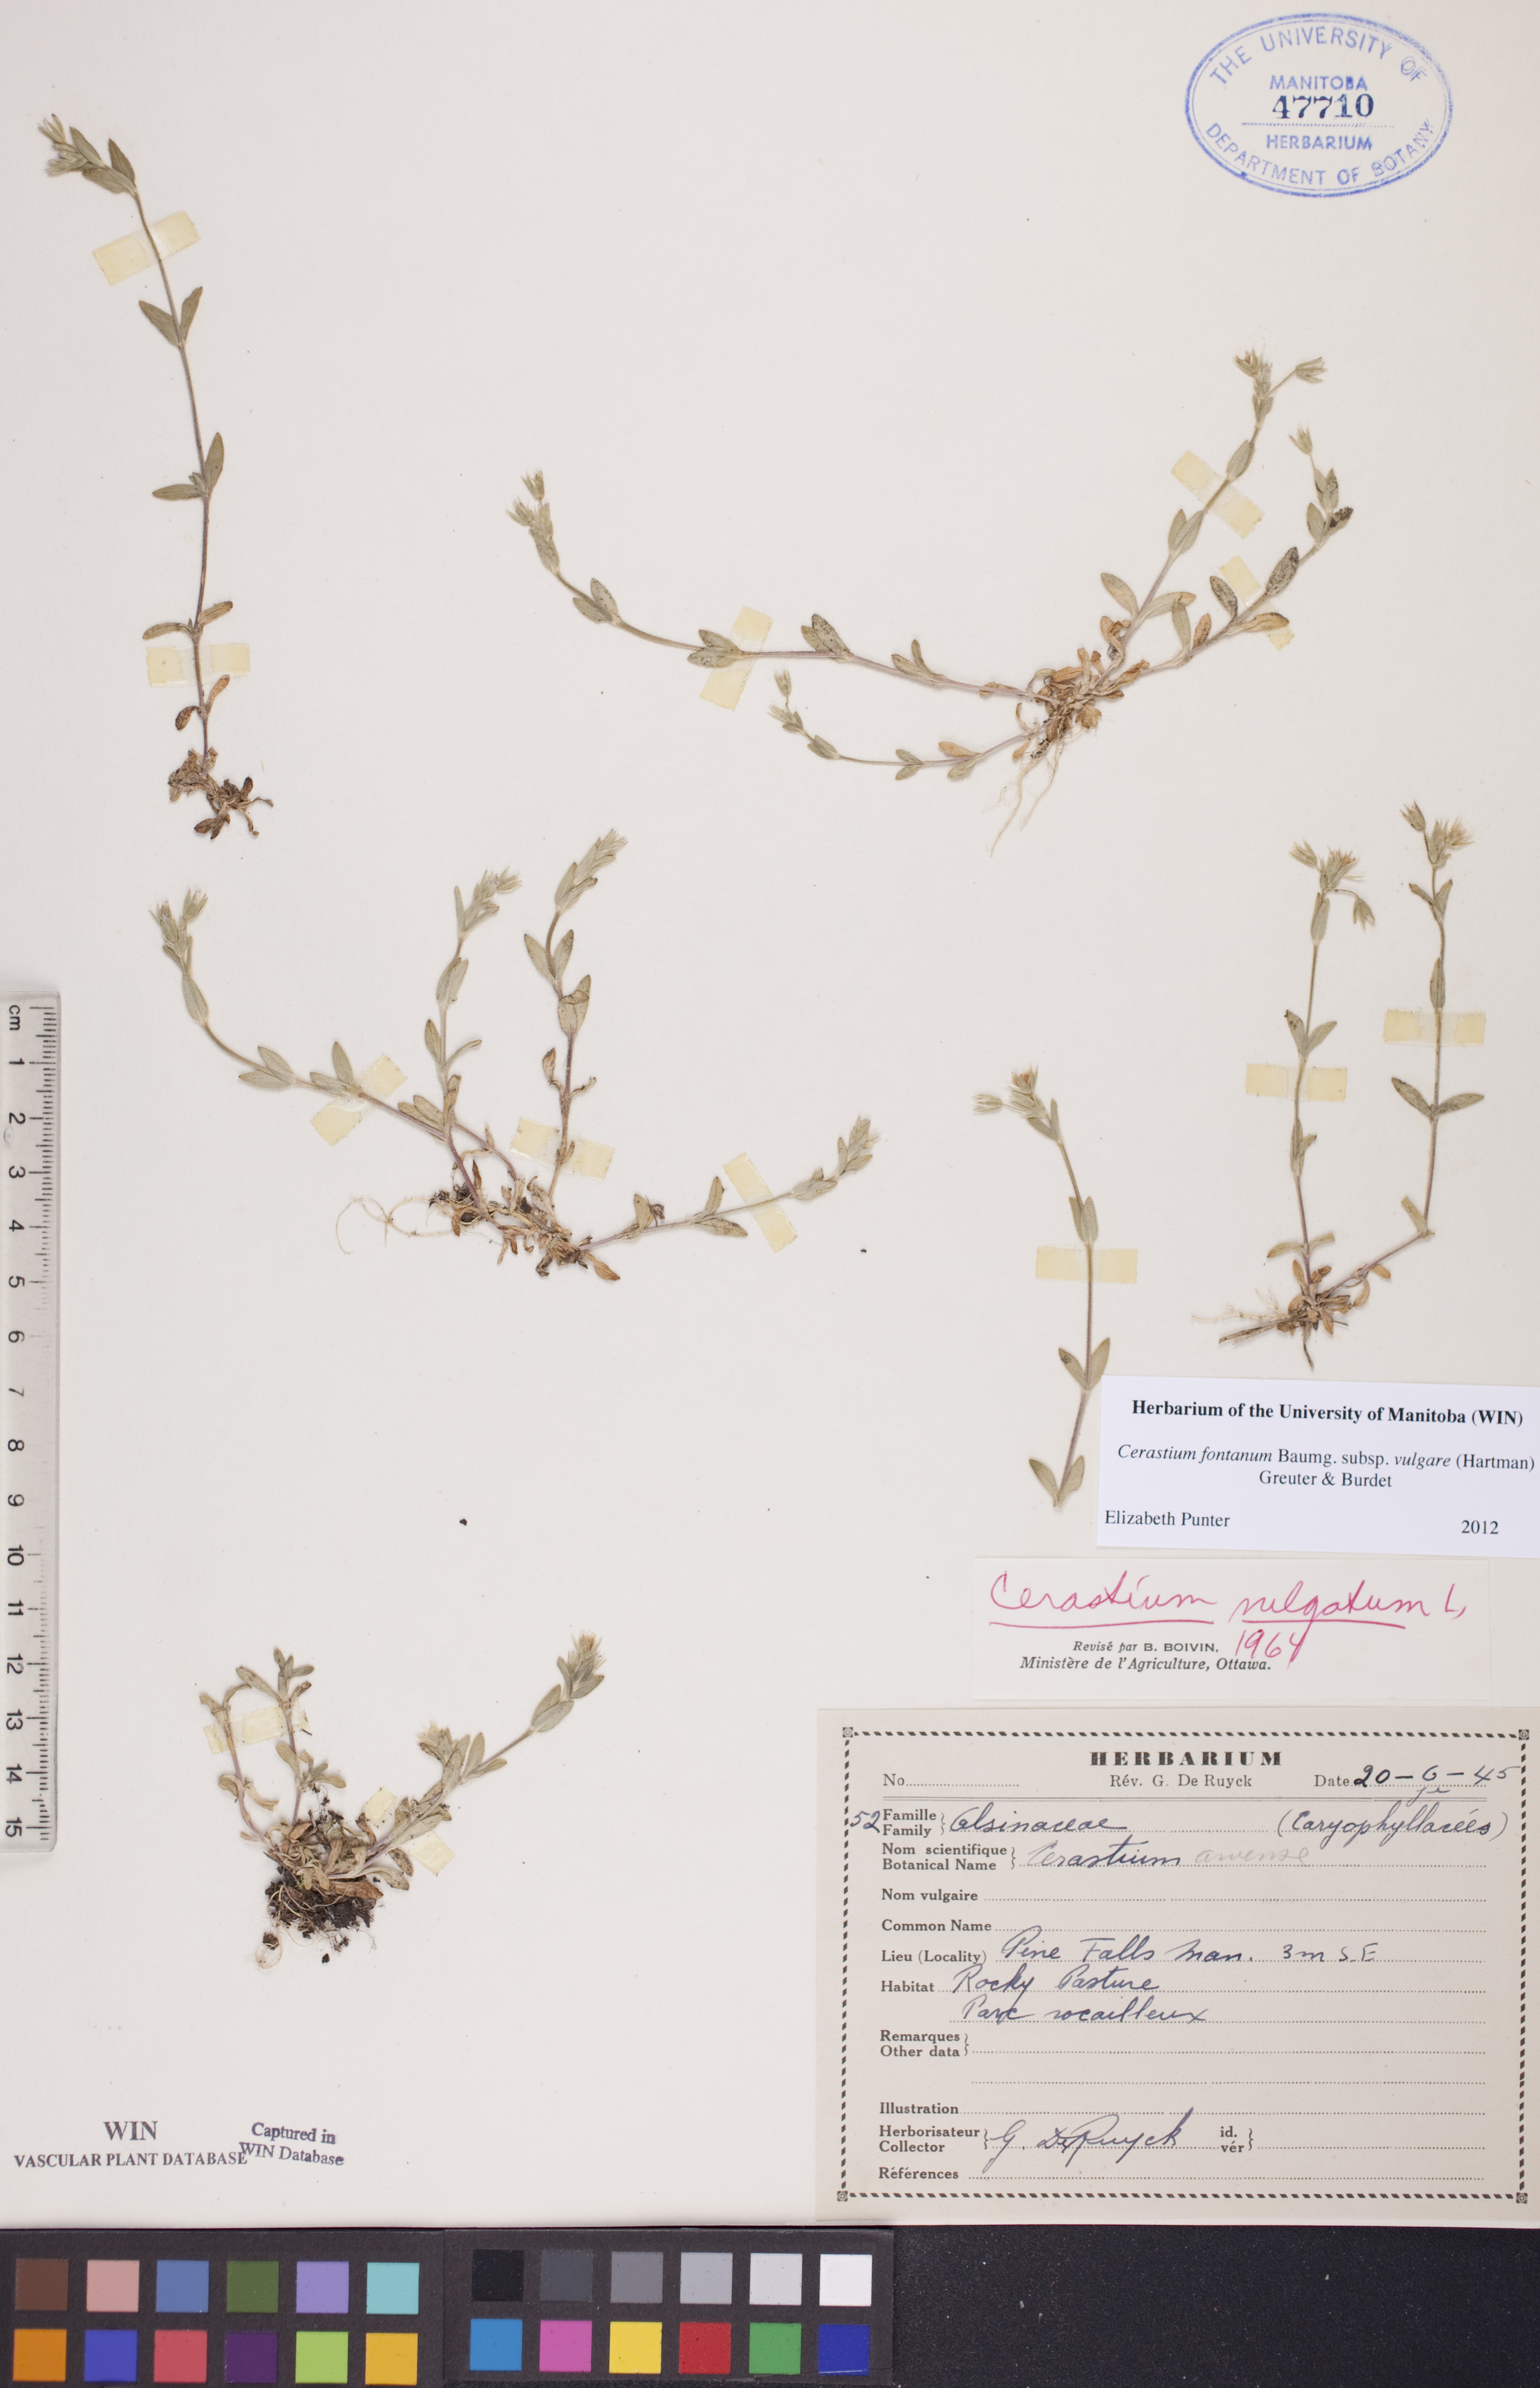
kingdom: Plantae
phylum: Tracheophyta
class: Magnoliopsida
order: Caryophyllales
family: Caryophyllaceae
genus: Cerastium
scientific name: Cerastium holosteoides
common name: Big chickweed
